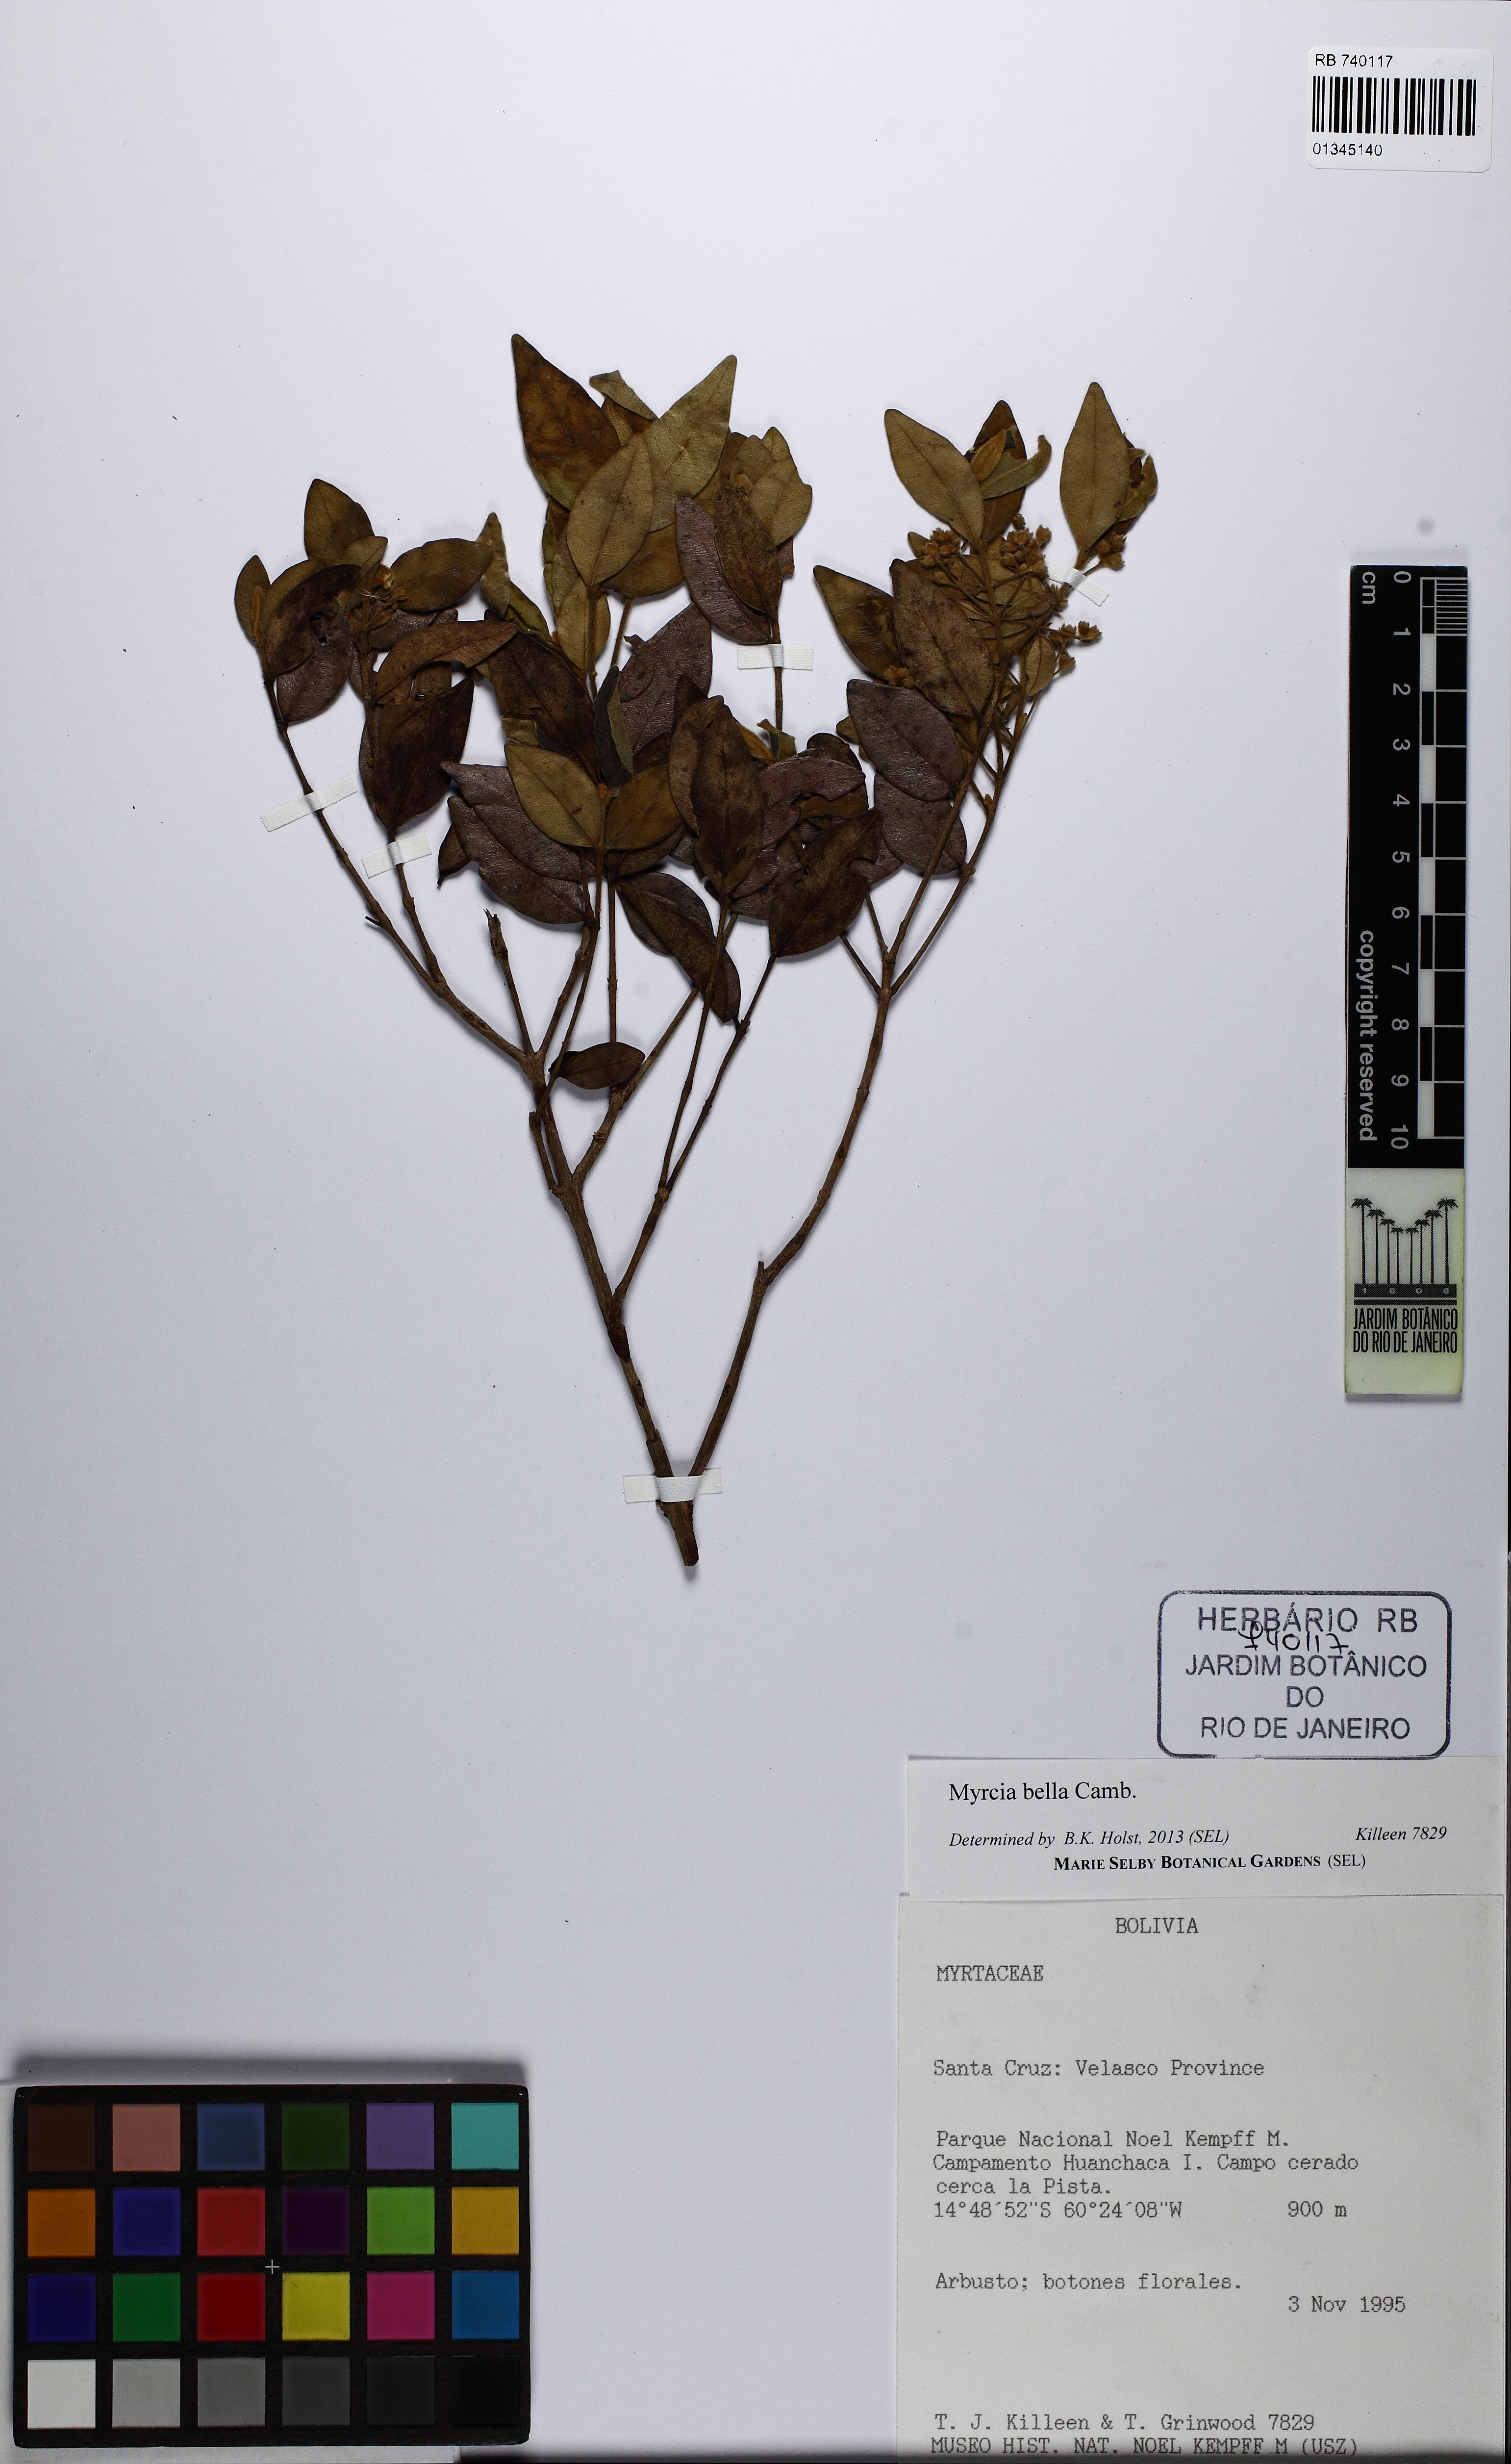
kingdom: Plantae
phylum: Tracheophyta
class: Magnoliopsida
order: Myrtales
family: Myrtaceae
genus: Myrcia
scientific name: Myrcia bella
